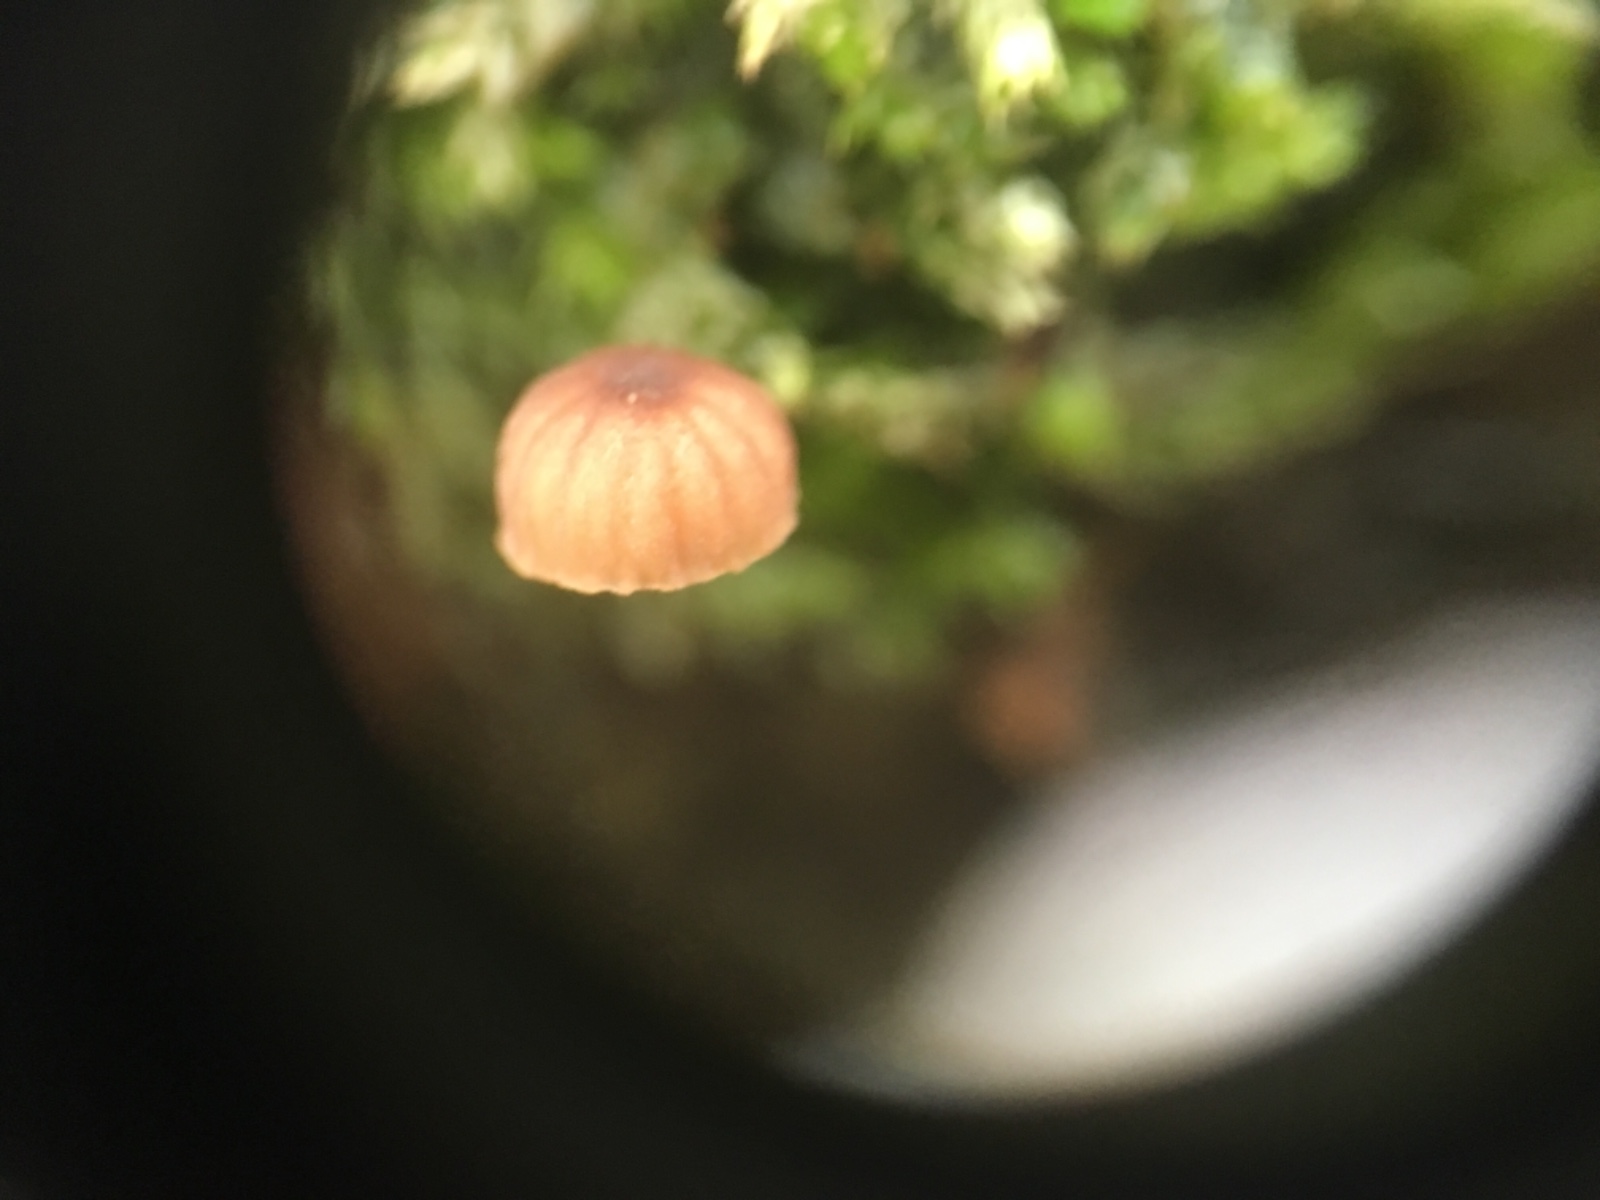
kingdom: Fungi
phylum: Basidiomycota
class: Agaricomycetes
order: Agaricales
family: Mycenaceae
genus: Mycena
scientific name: Mycena meliigena
